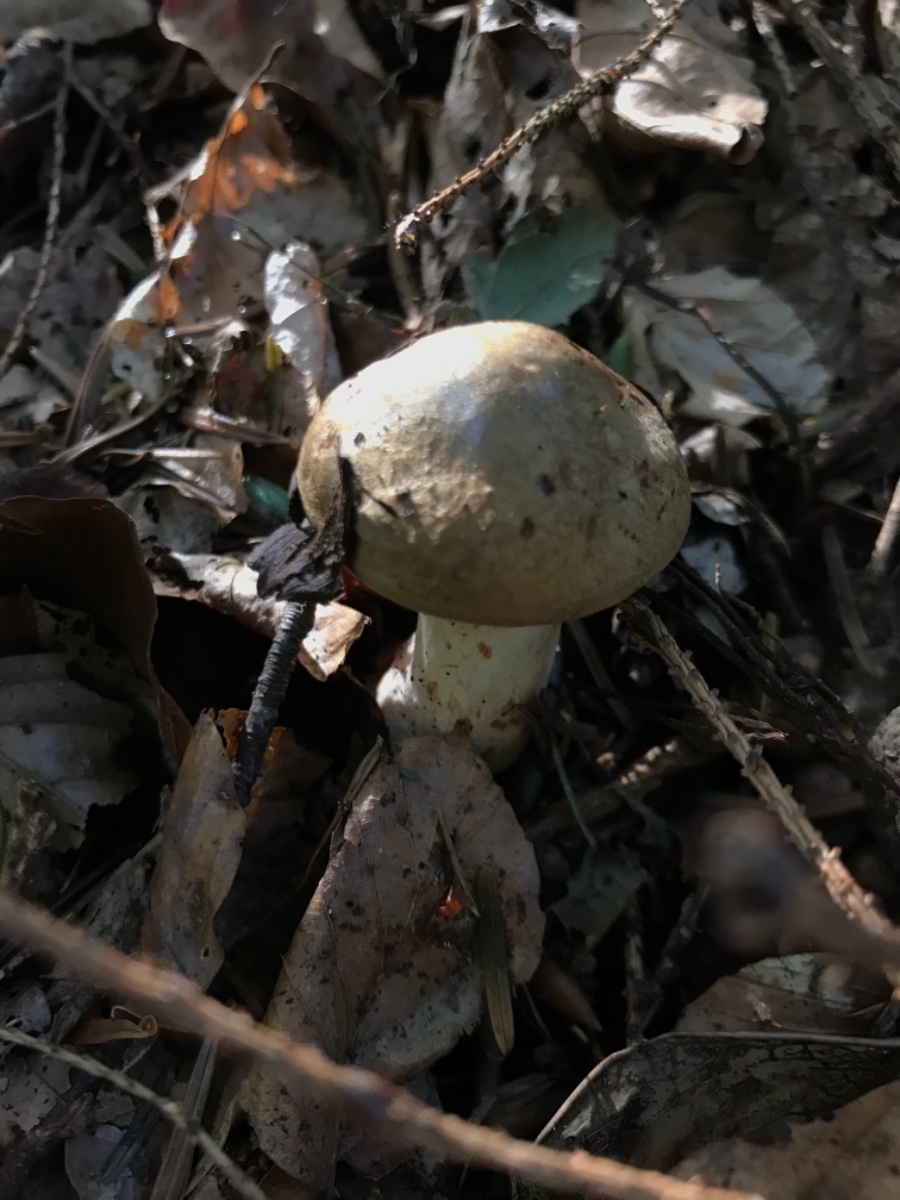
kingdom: Fungi
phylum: Basidiomycota
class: Agaricomycetes
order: Boletales
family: Paxillaceae
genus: Paxillus
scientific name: Paxillus involutus
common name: almindelig netbladhat
